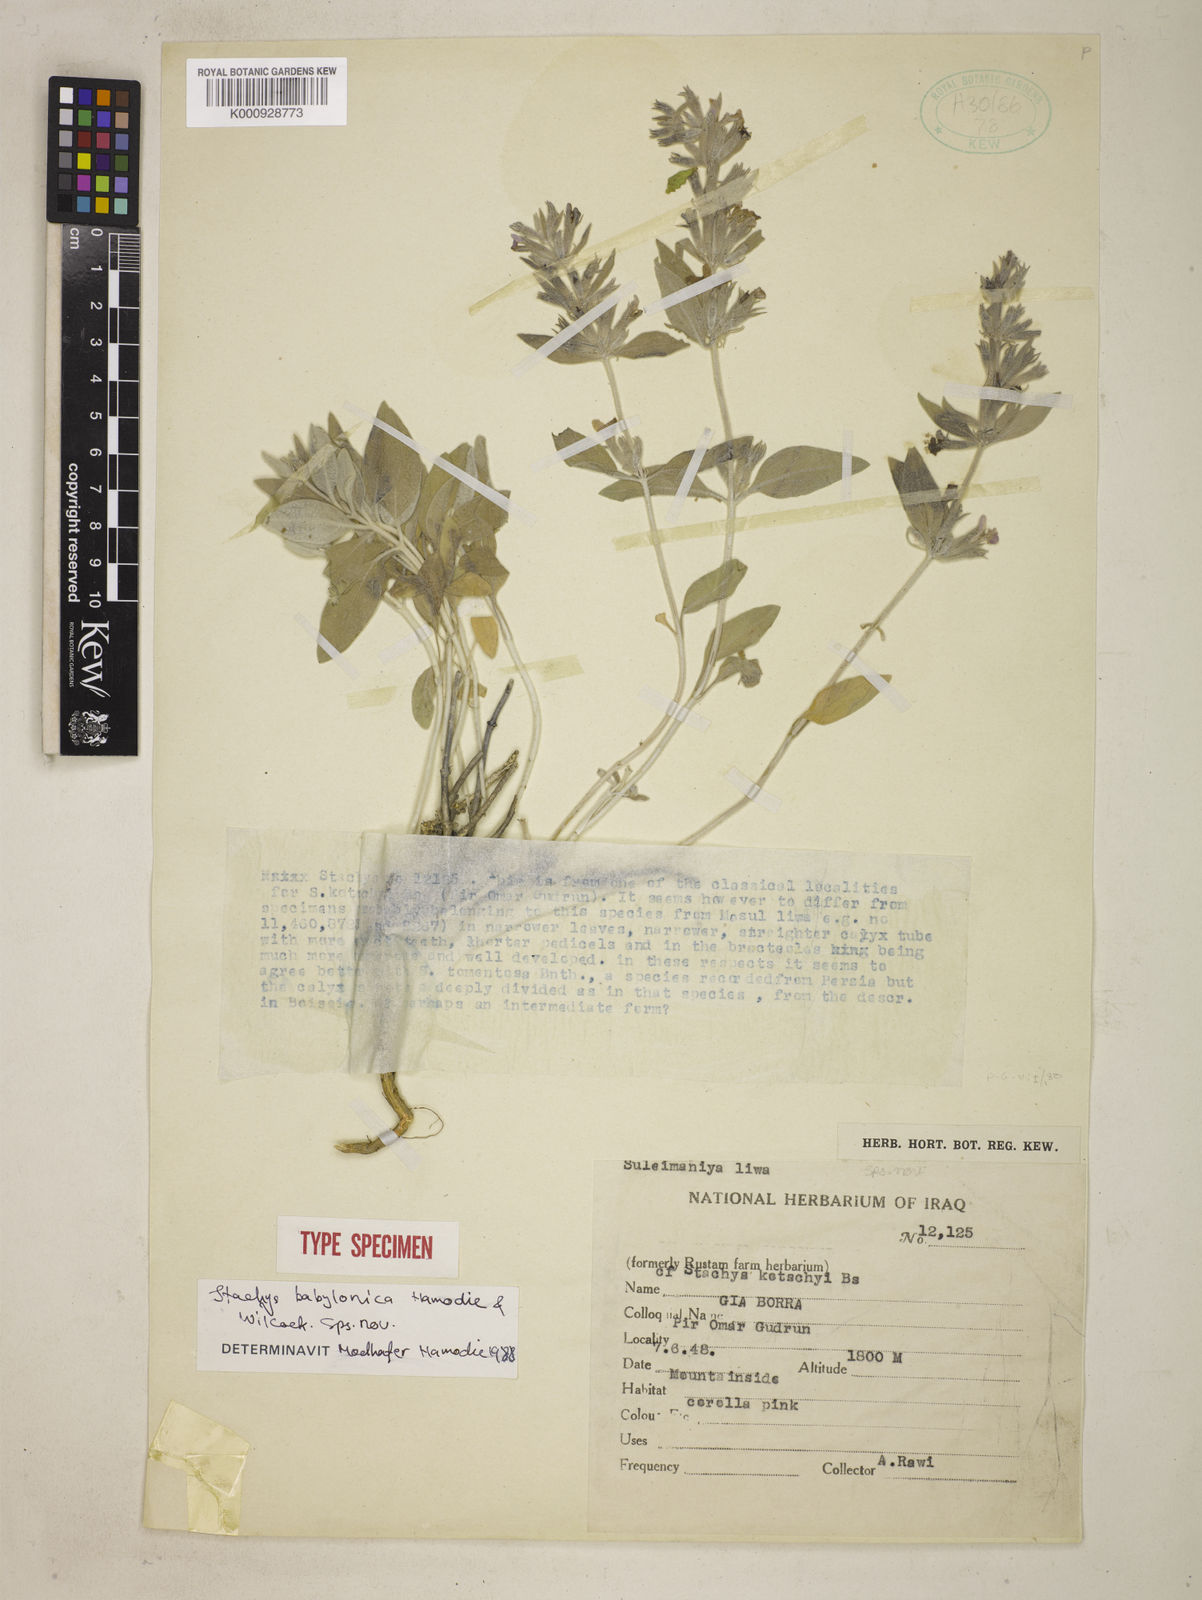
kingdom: Plantae
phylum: Tracheophyta
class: Magnoliopsida
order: Lamiales
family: Lamiaceae
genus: Stachys
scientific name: Stachys
